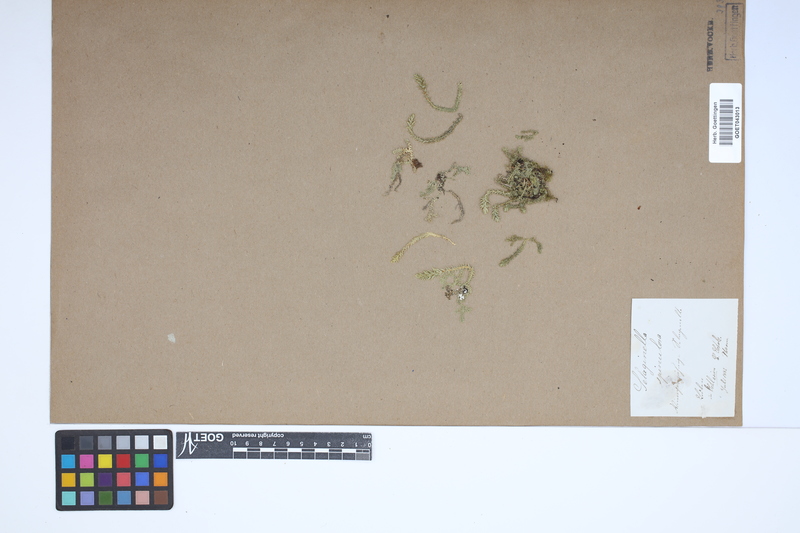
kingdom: Plantae
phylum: Tracheophyta
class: Lycopodiopsida
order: Selaginellales
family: Selaginellaceae
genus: Selaginella
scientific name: Selaginella selaginoides
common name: Prickly mountain-moss
